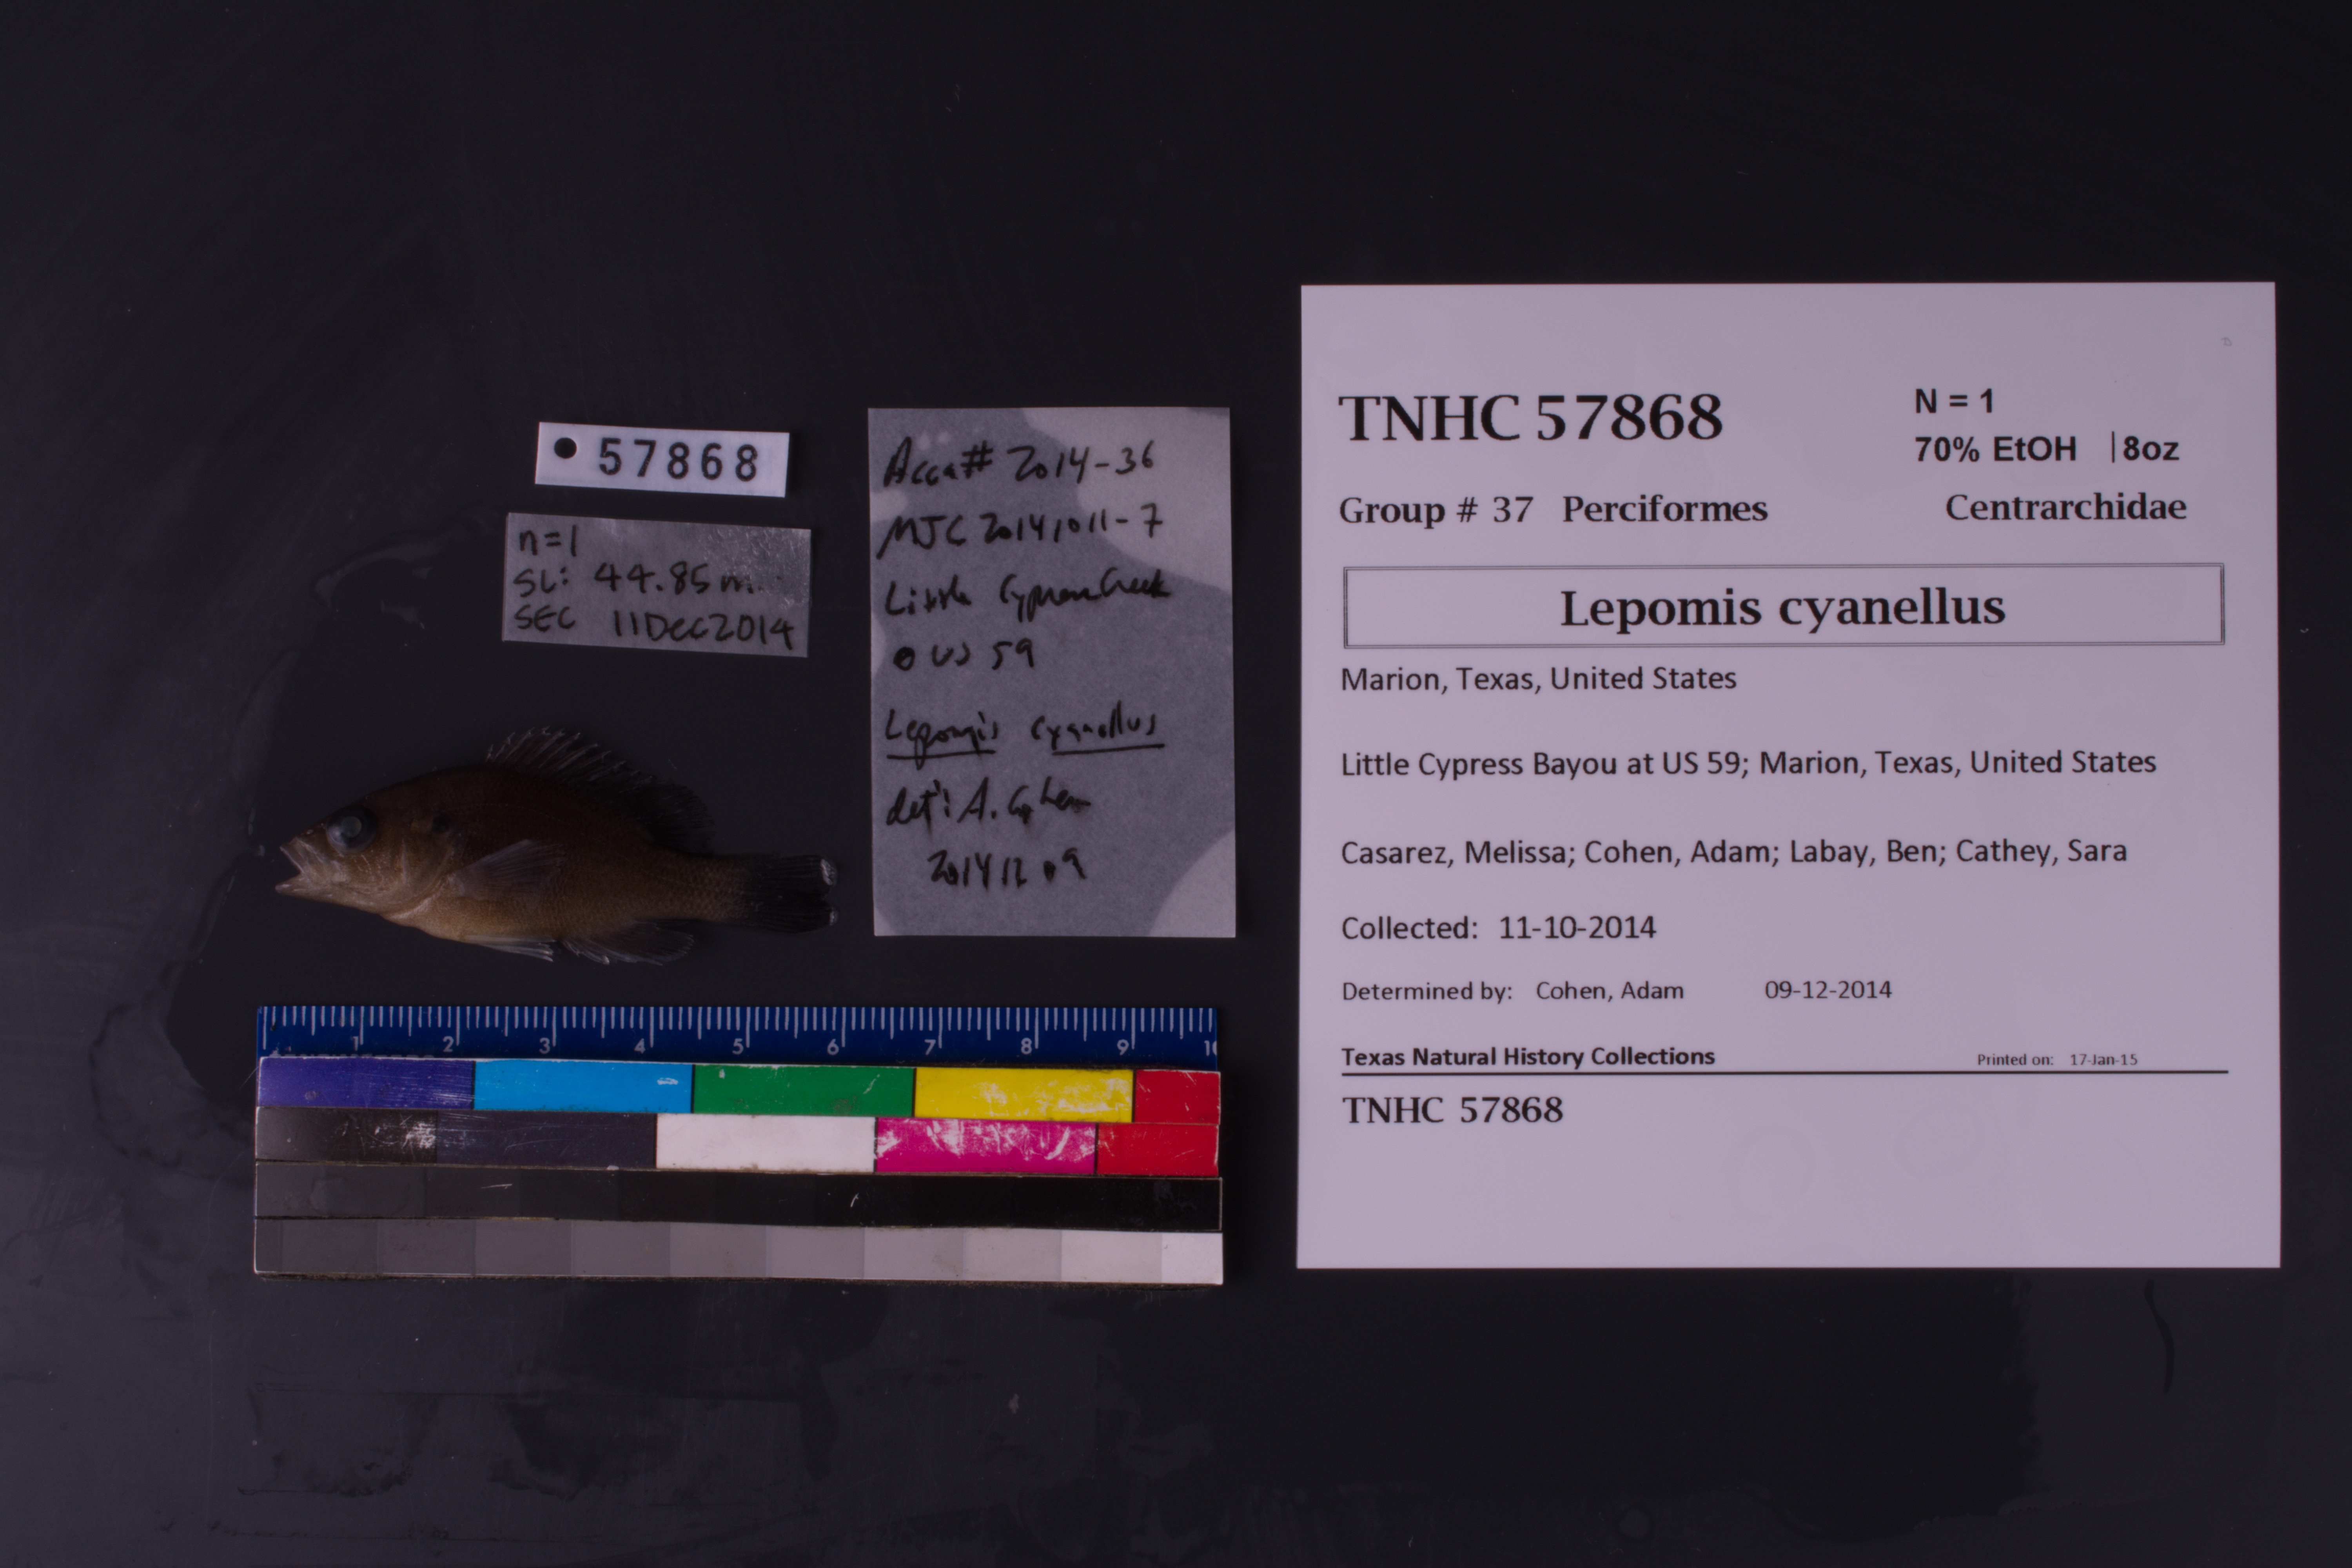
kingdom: Animalia
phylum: Chordata
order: Perciformes
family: Centrarchidae
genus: Lepomis
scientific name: Lepomis cyanellus
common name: Green sunfish
